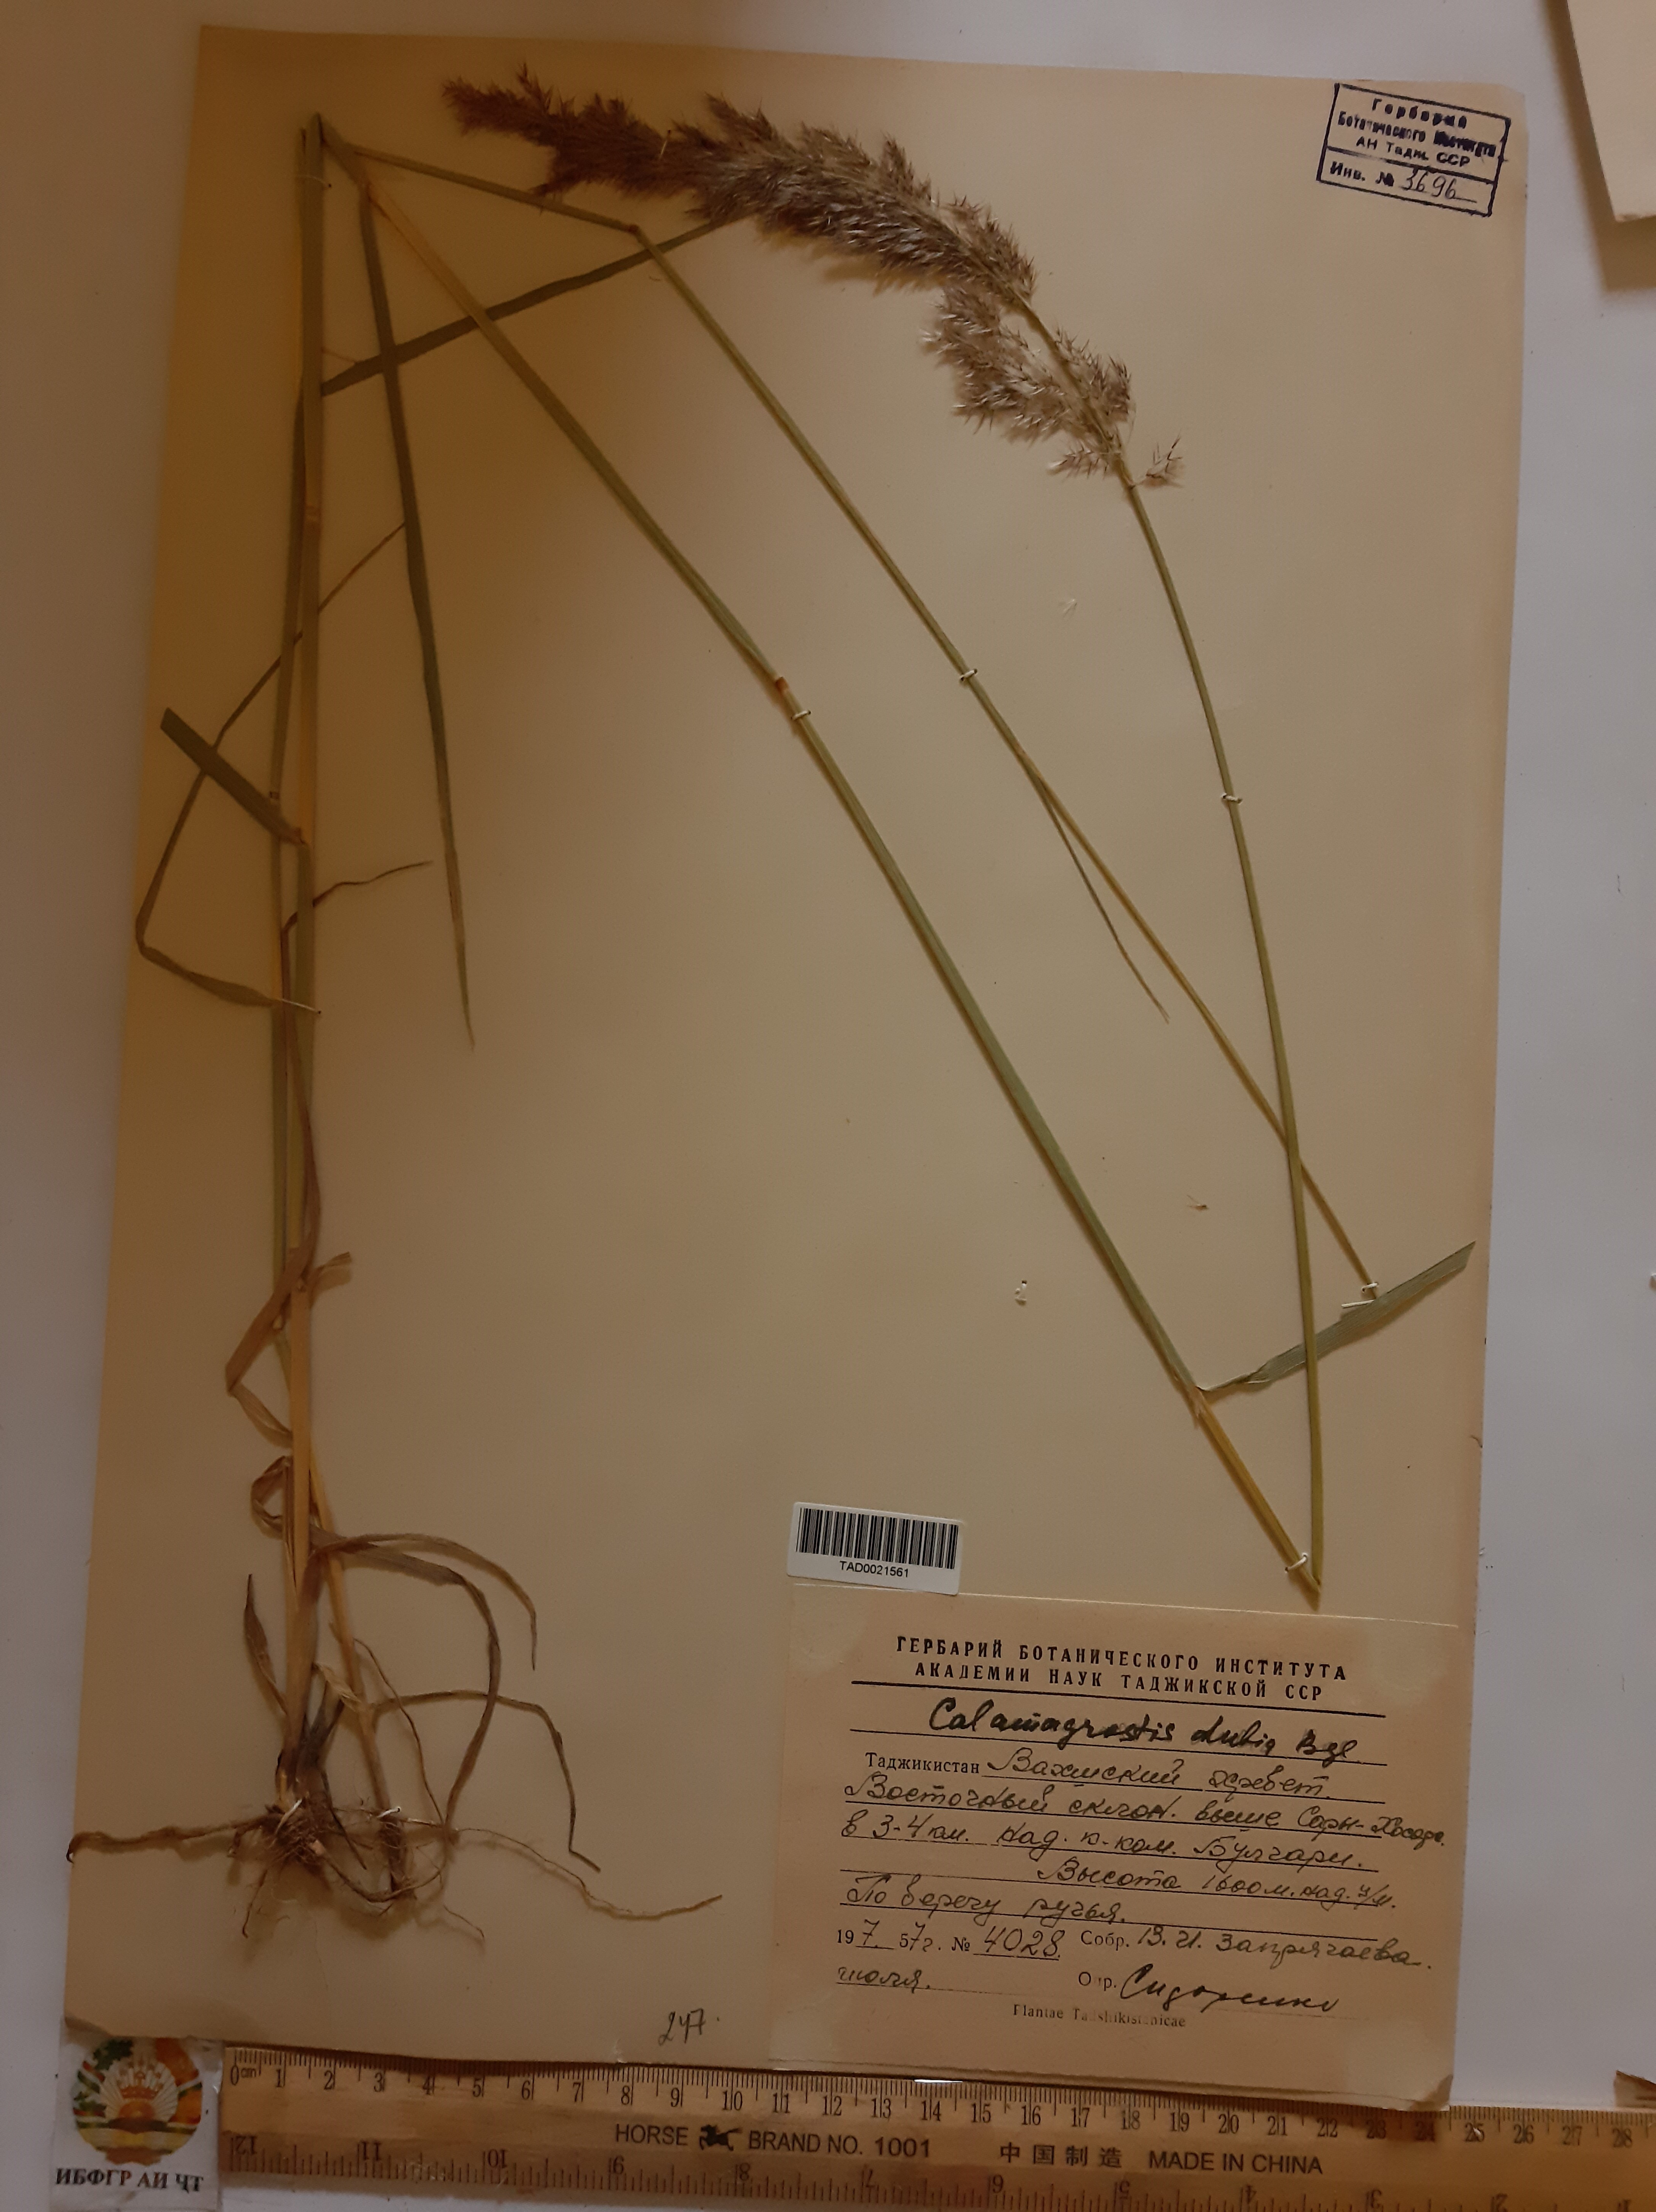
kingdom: Plantae
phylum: Tracheophyta
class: Liliopsida
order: Poales
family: Poaceae
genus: Calamagrostis
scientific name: Calamagrostis pseudophragmites
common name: Coastal small-reed
